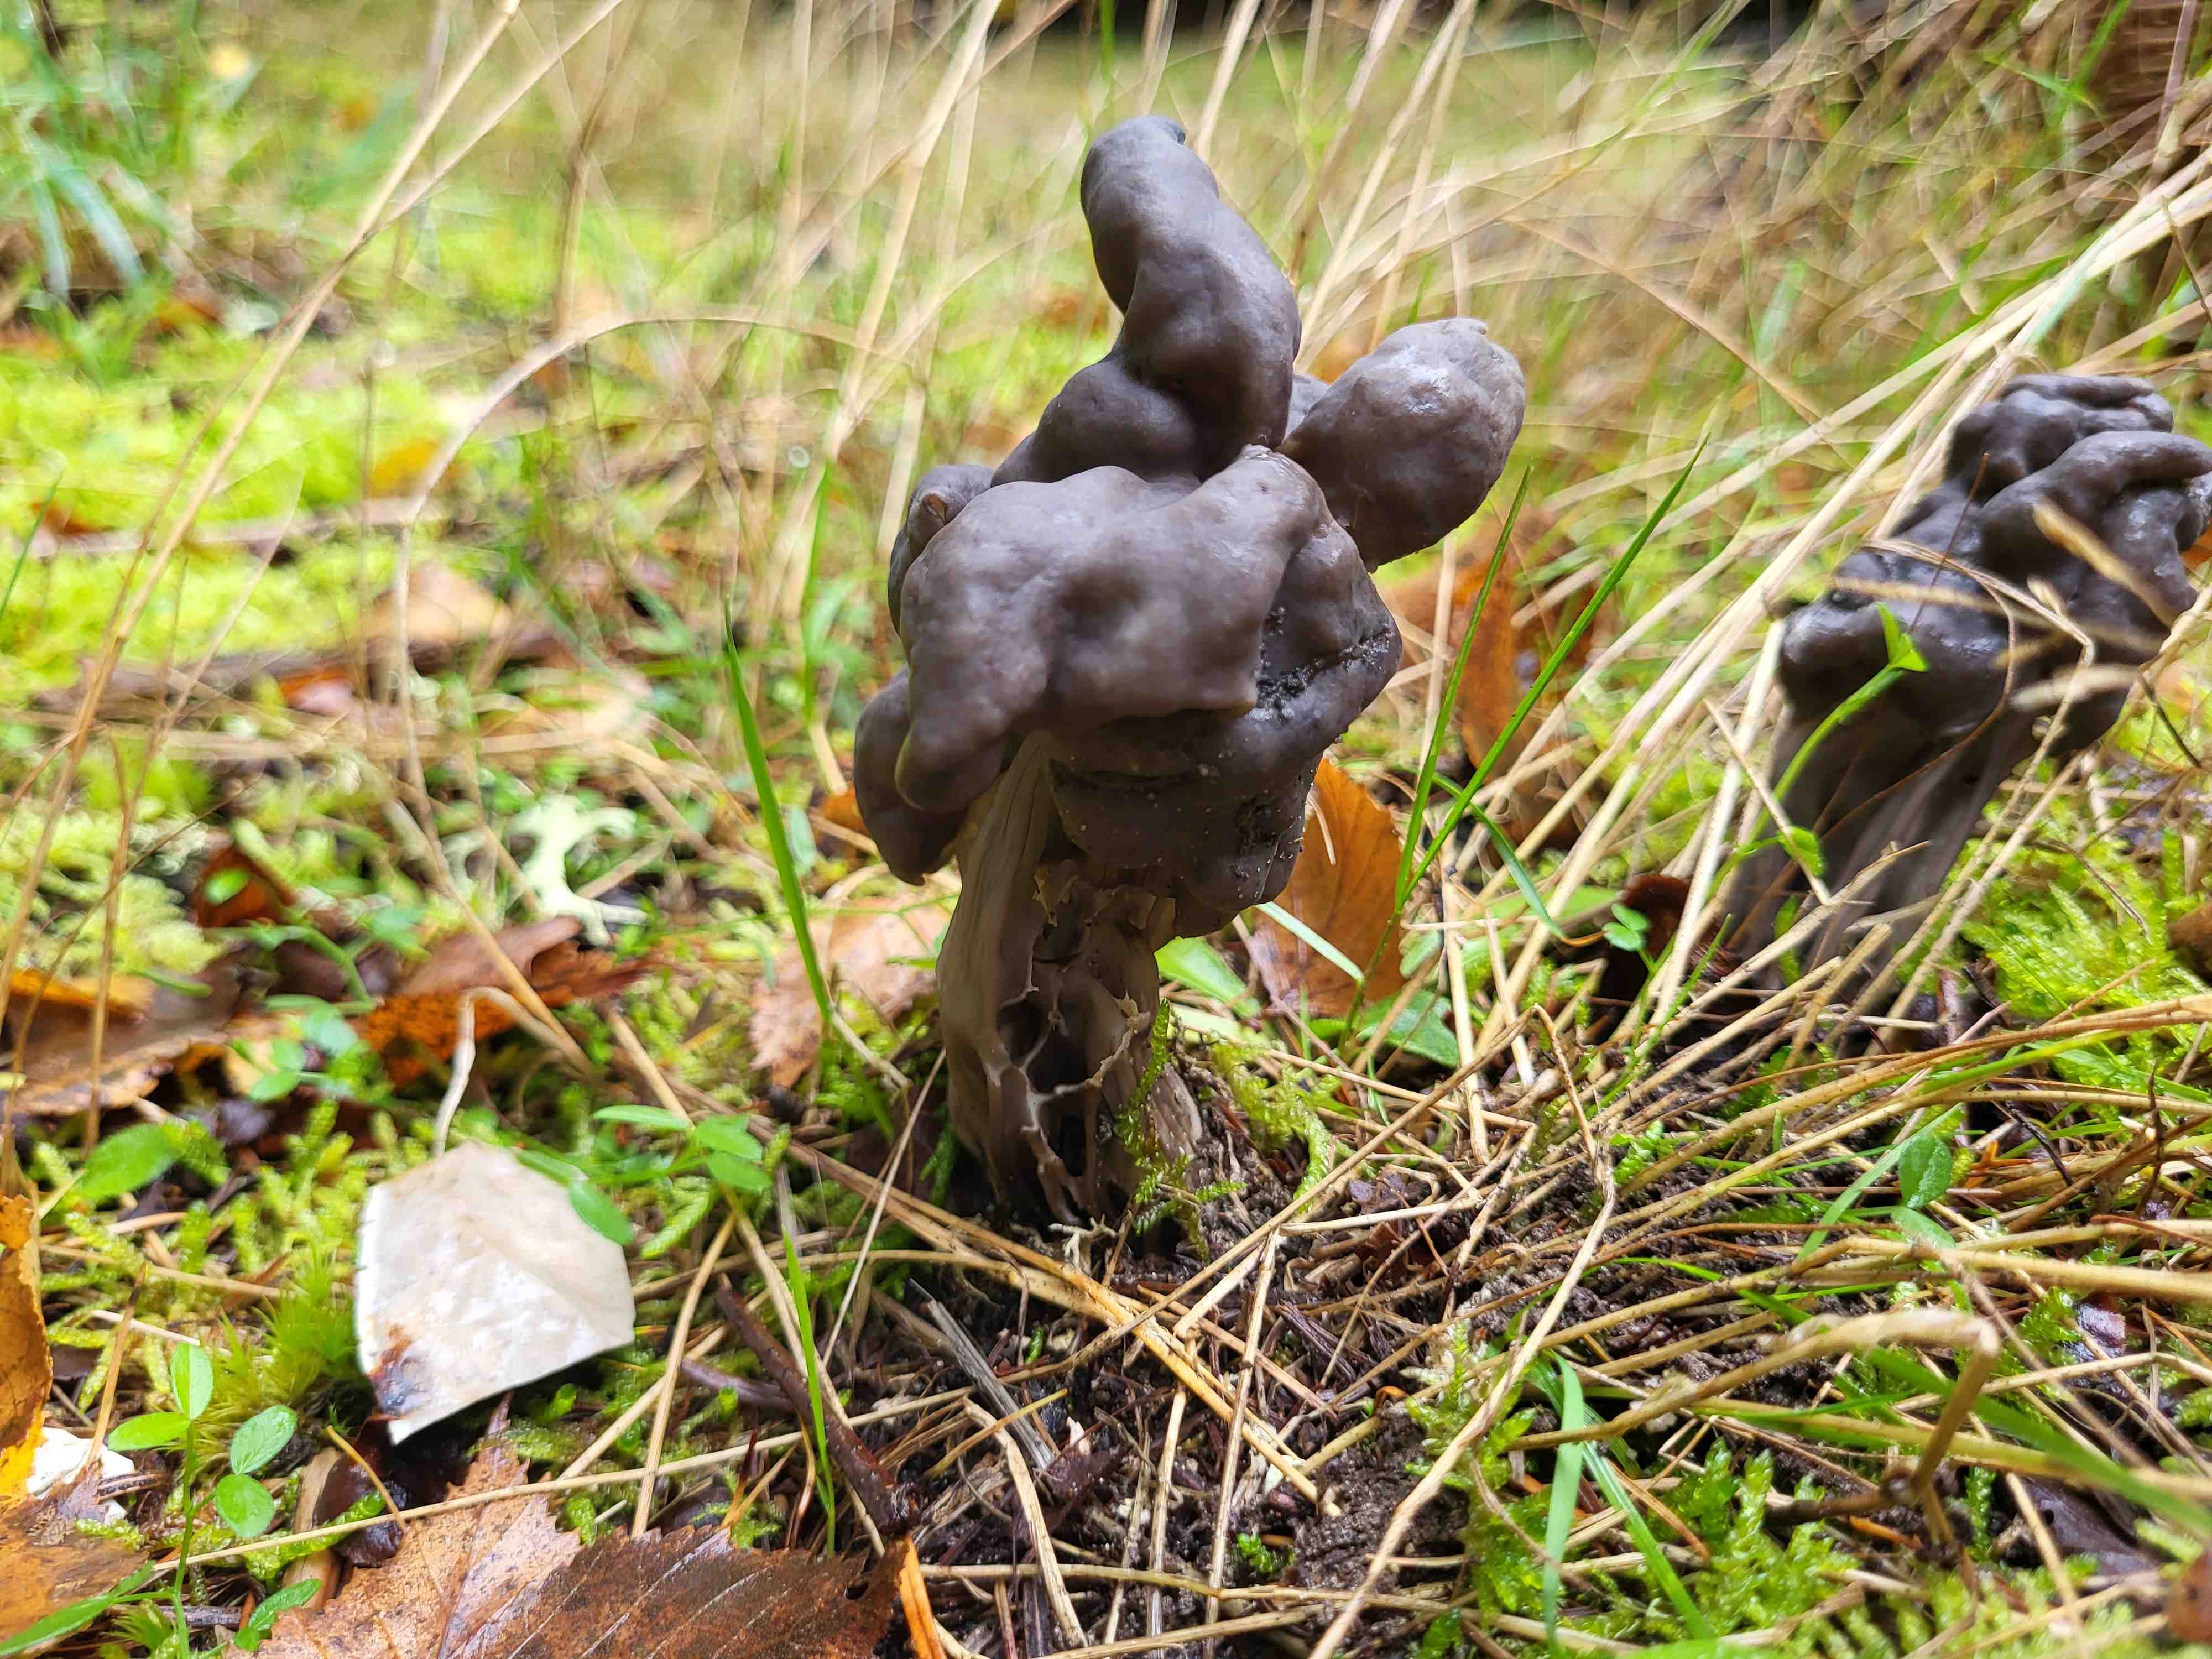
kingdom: Fungi
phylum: Ascomycota
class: Pezizomycetes
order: Pezizales
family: Helvellaceae
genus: Helvella
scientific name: Helvella lacunosa
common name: grubet foldhat
